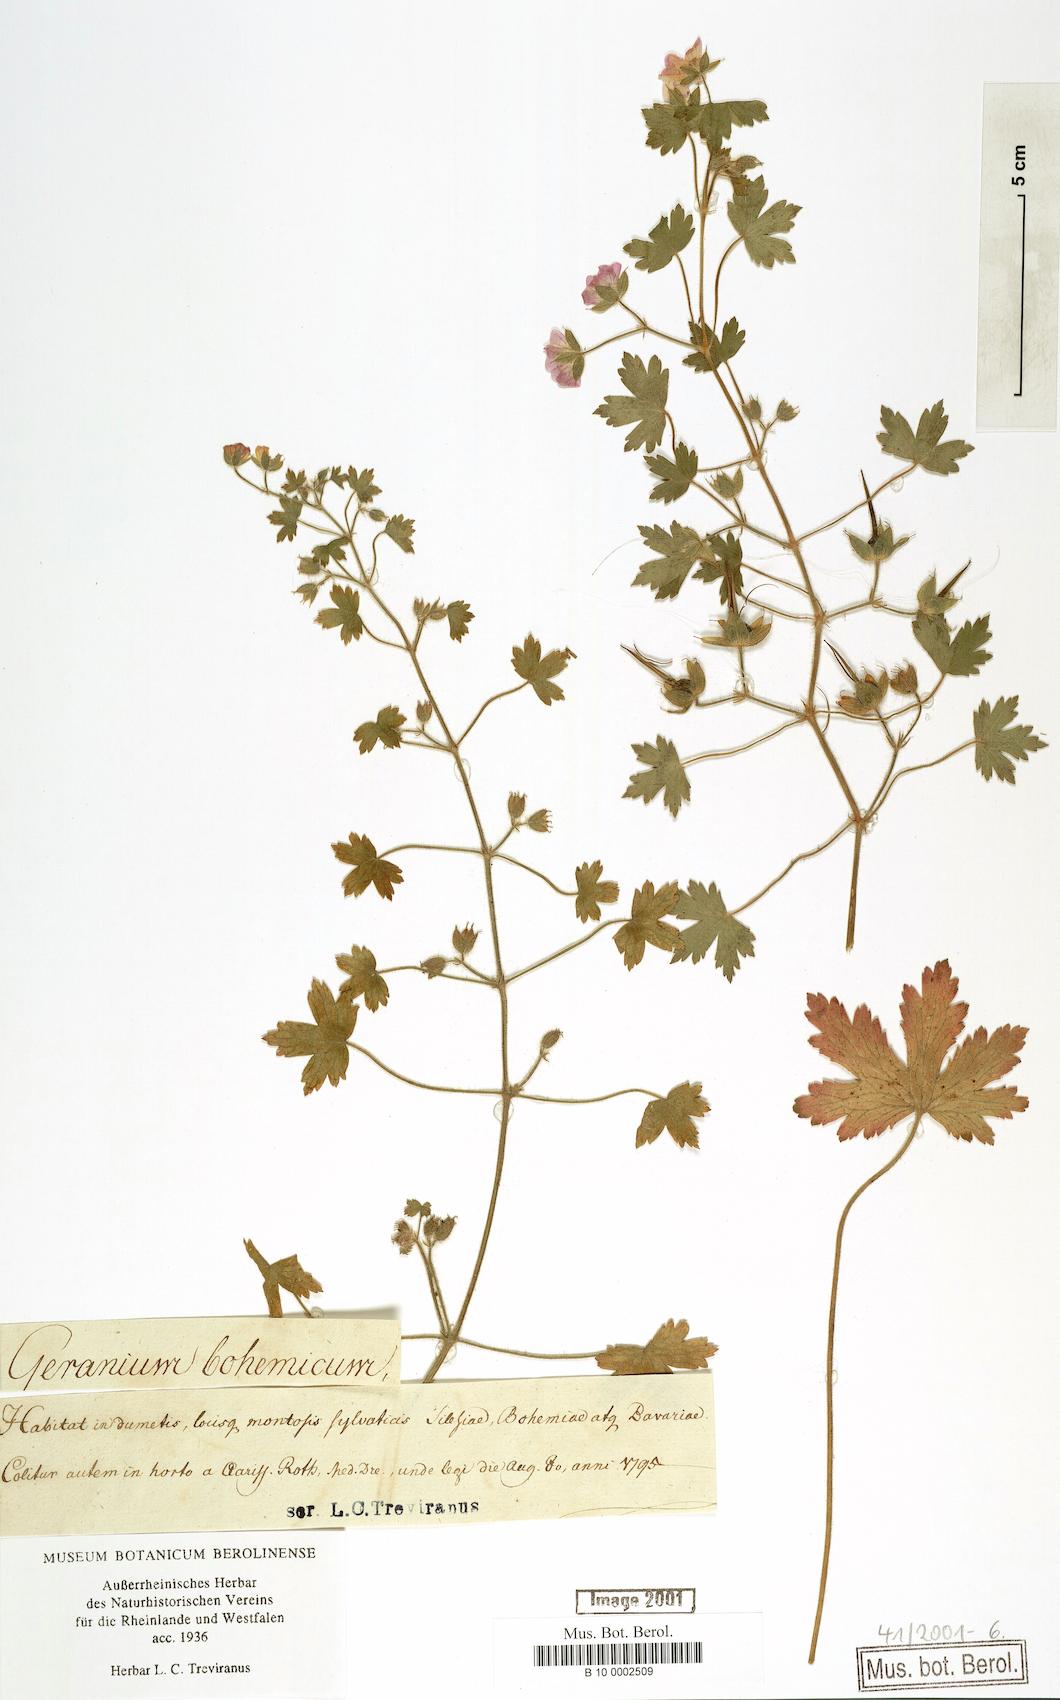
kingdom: Plantae
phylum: Tracheophyta
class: Magnoliopsida
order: Geraniales
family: Geraniaceae
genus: Geranium
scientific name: Geranium bohemicum
